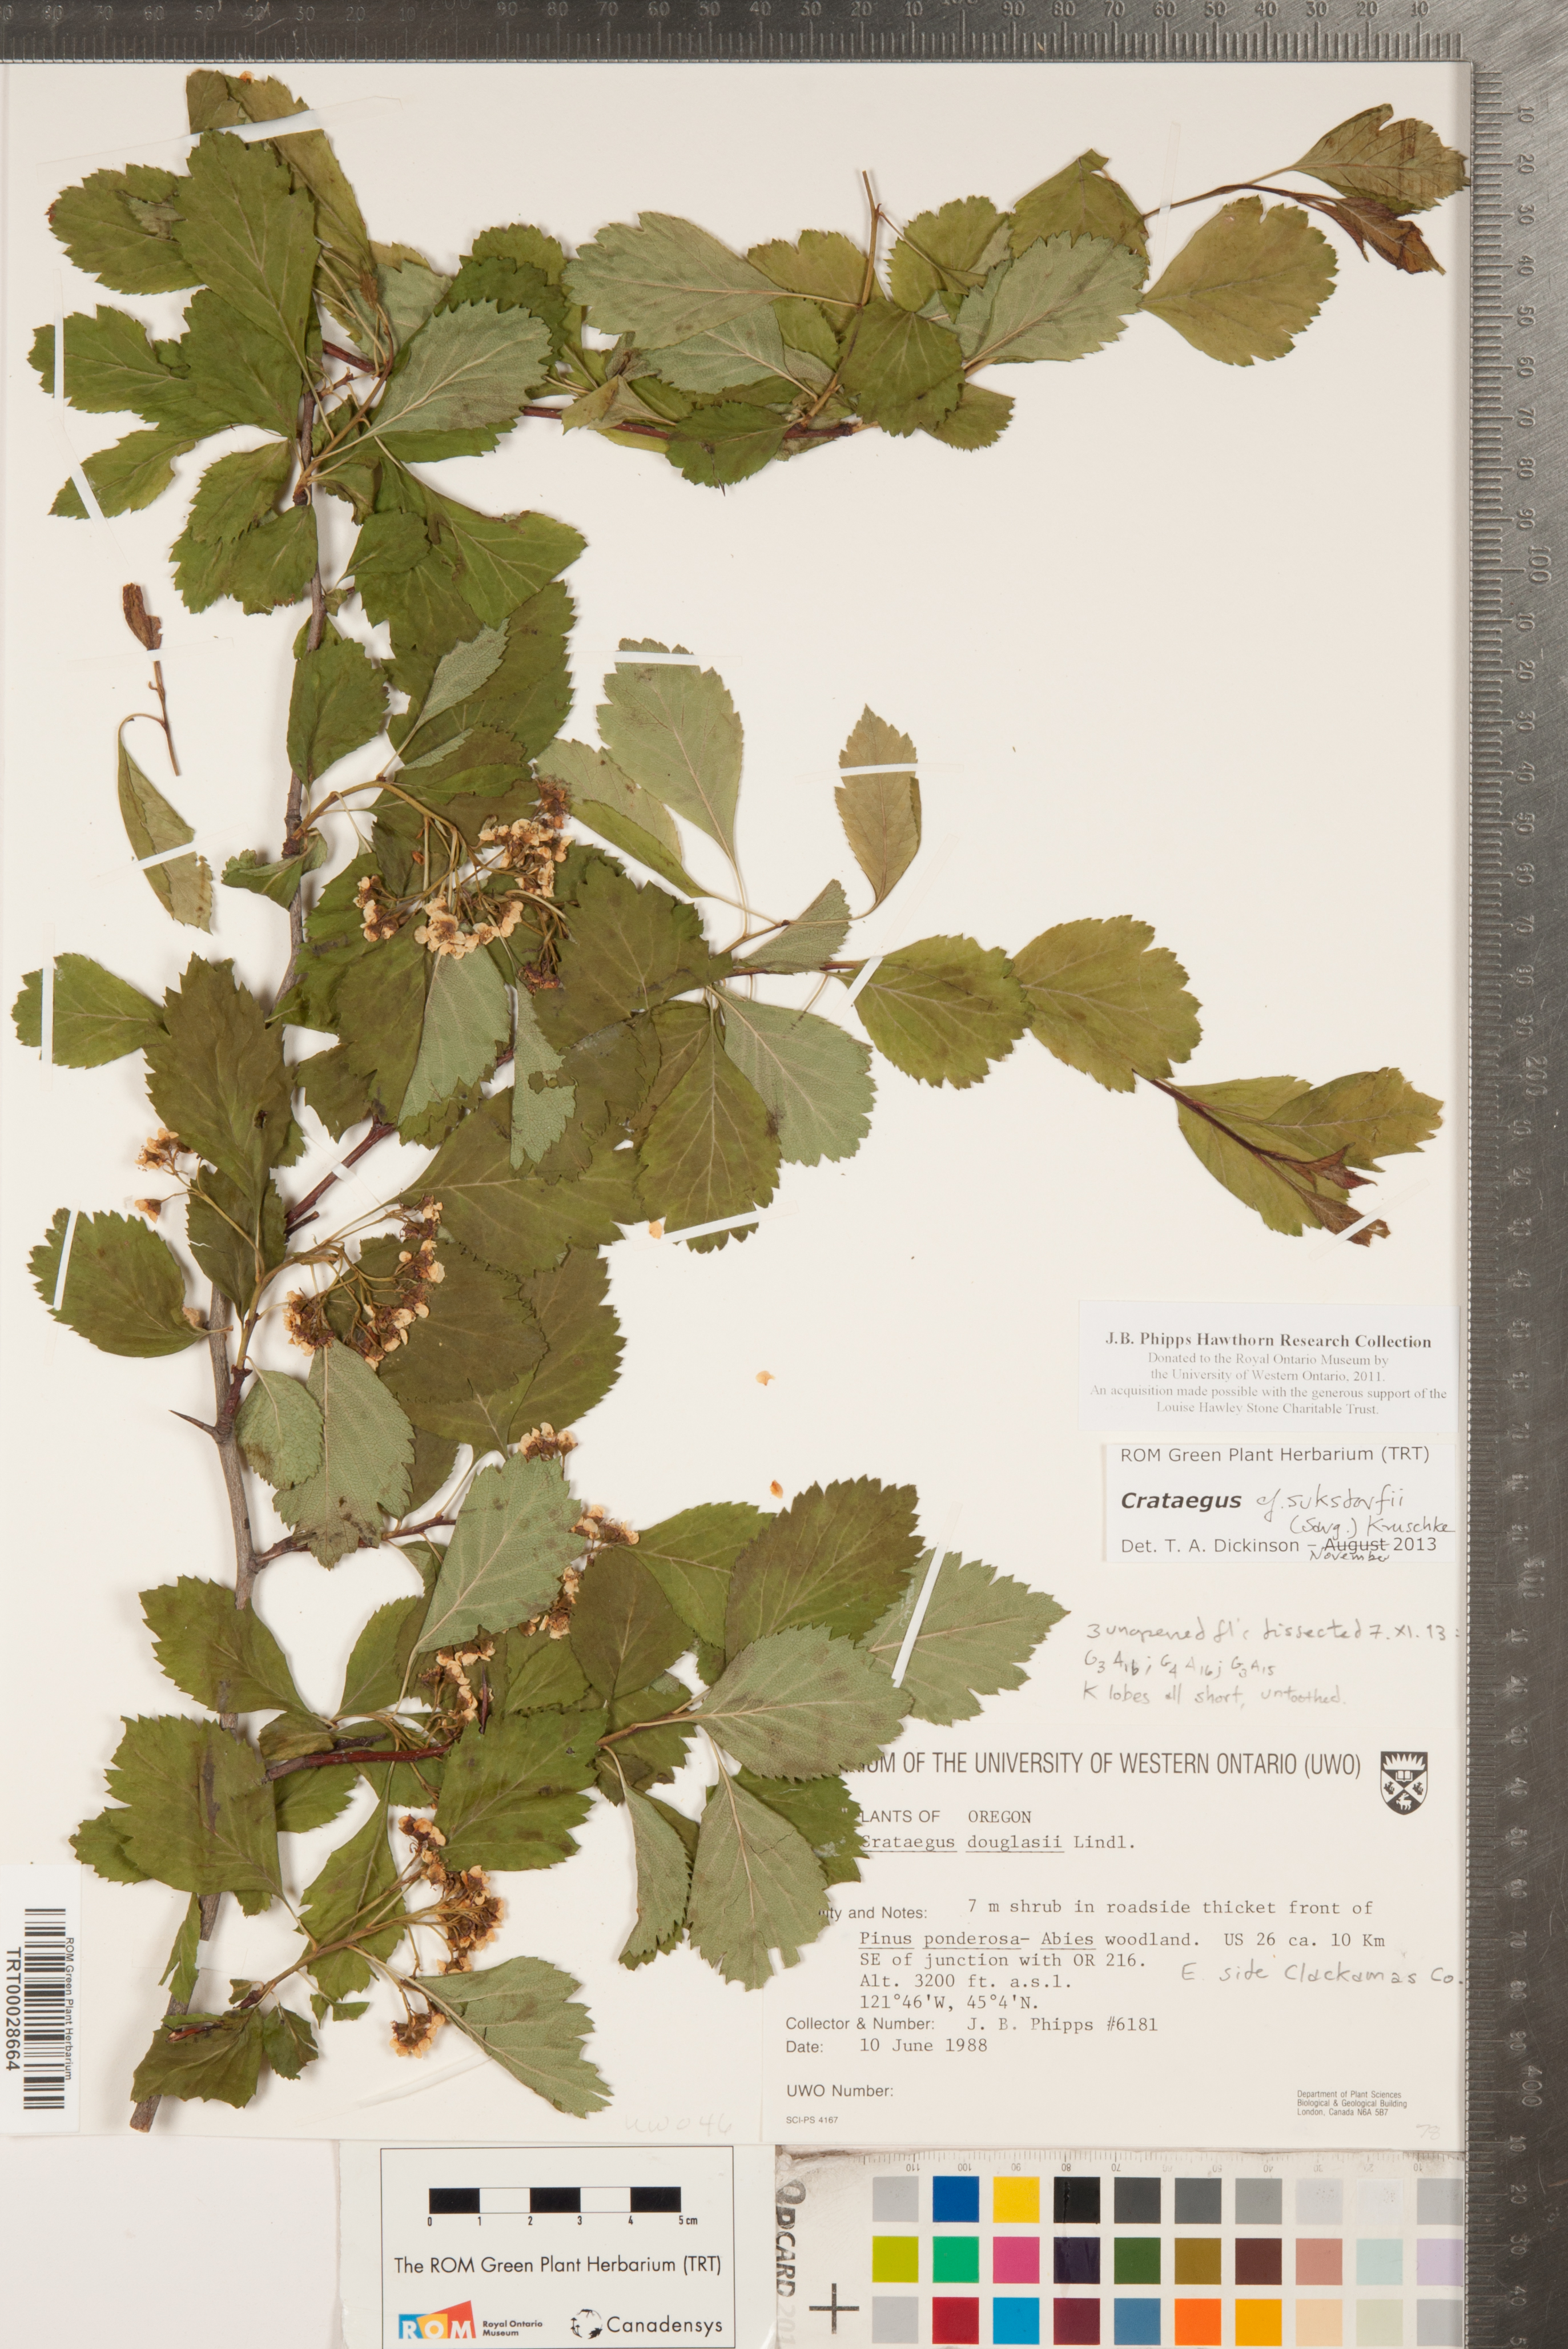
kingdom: Plantae
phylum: Tracheophyta
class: Magnoliopsida
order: Rosales
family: Rosaceae
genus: Crataegus
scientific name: Crataegus gaylussacia
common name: Huckleberry hawthorn
